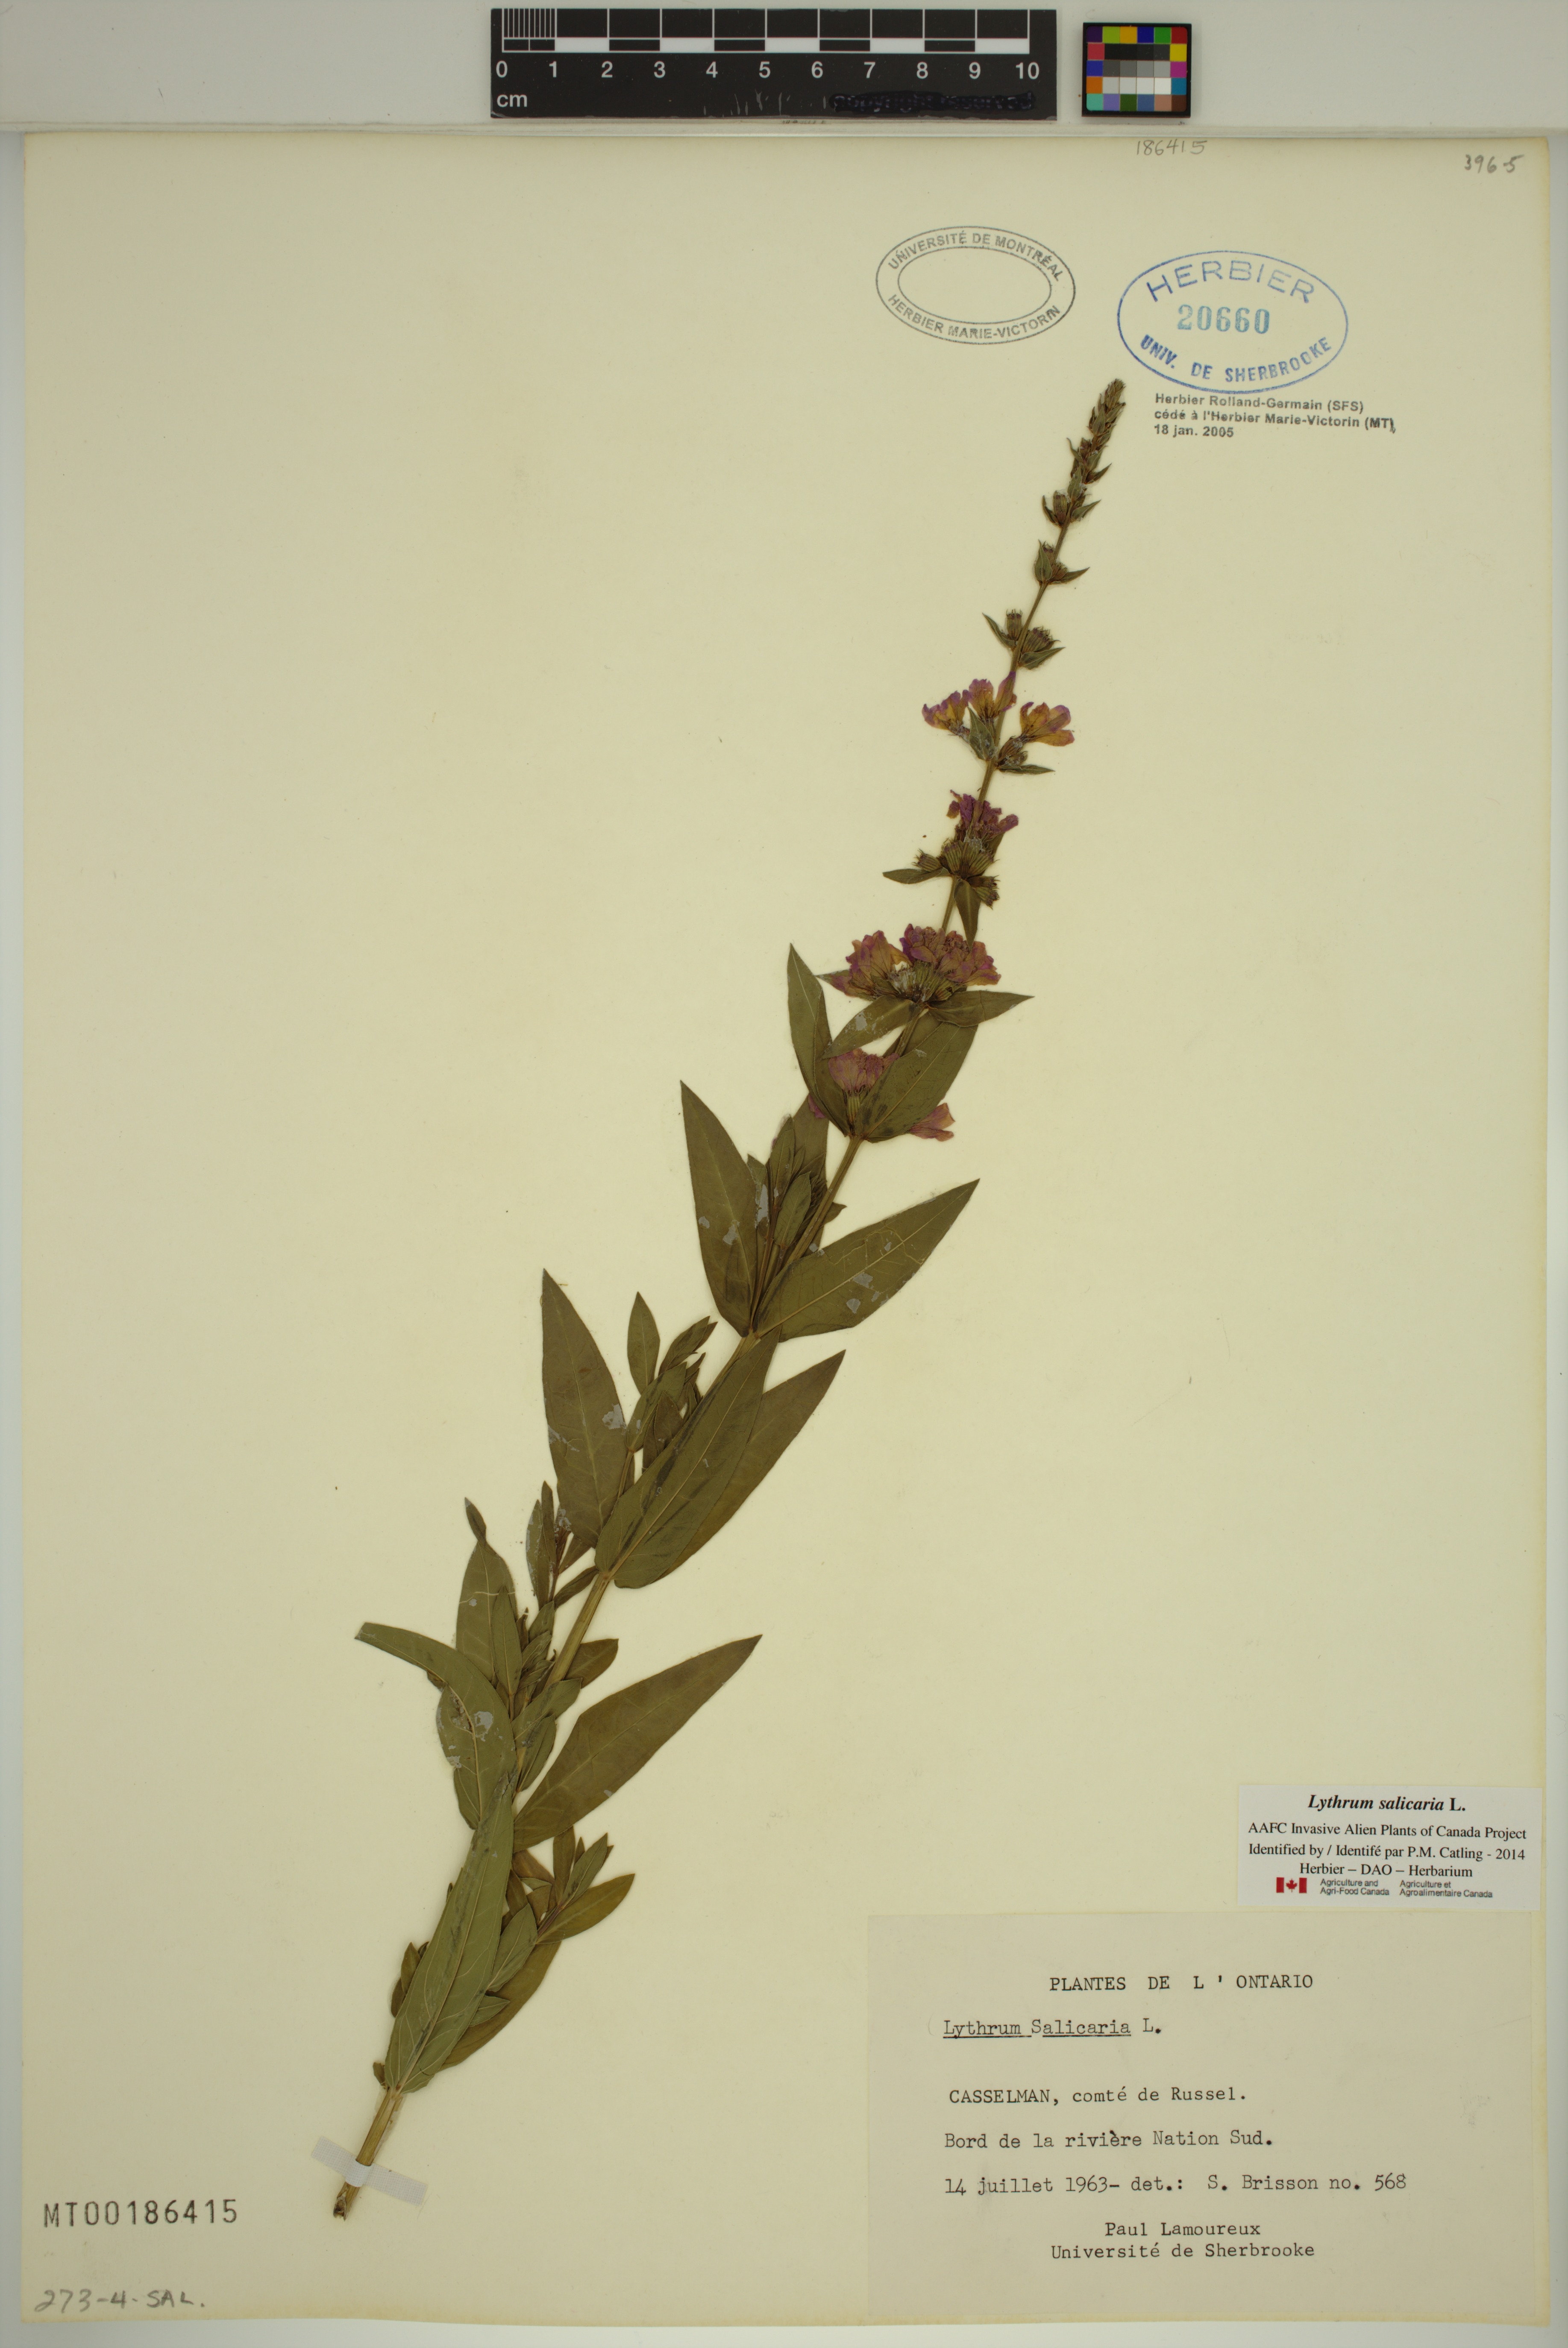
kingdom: Plantae
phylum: Tracheophyta
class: Magnoliopsida
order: Myrtales
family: Lythraceae
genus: Lythrum
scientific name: Lythrum salicaria
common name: Purple loosestrife
